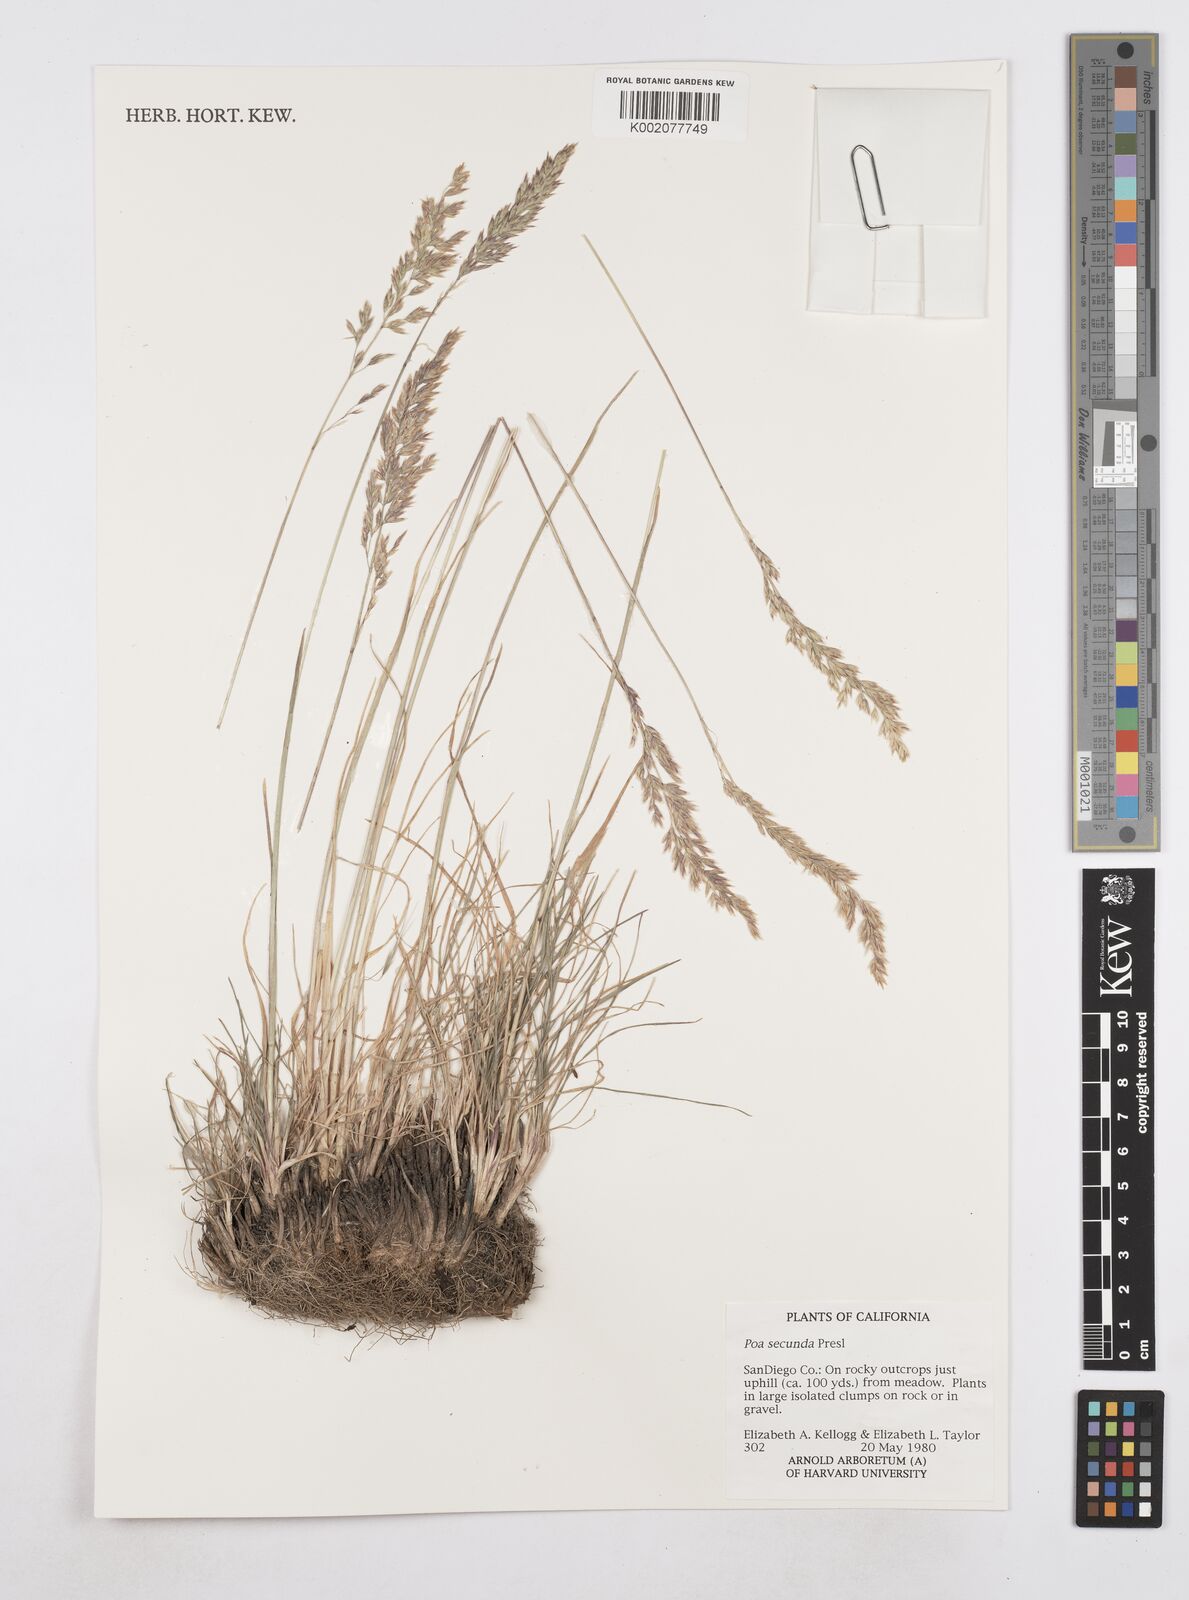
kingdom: Plantae
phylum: Tracheophyta
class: Liliopsida
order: Poales
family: Poaceae
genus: Poa
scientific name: Poa secunda
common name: Sandberg bluegrass
